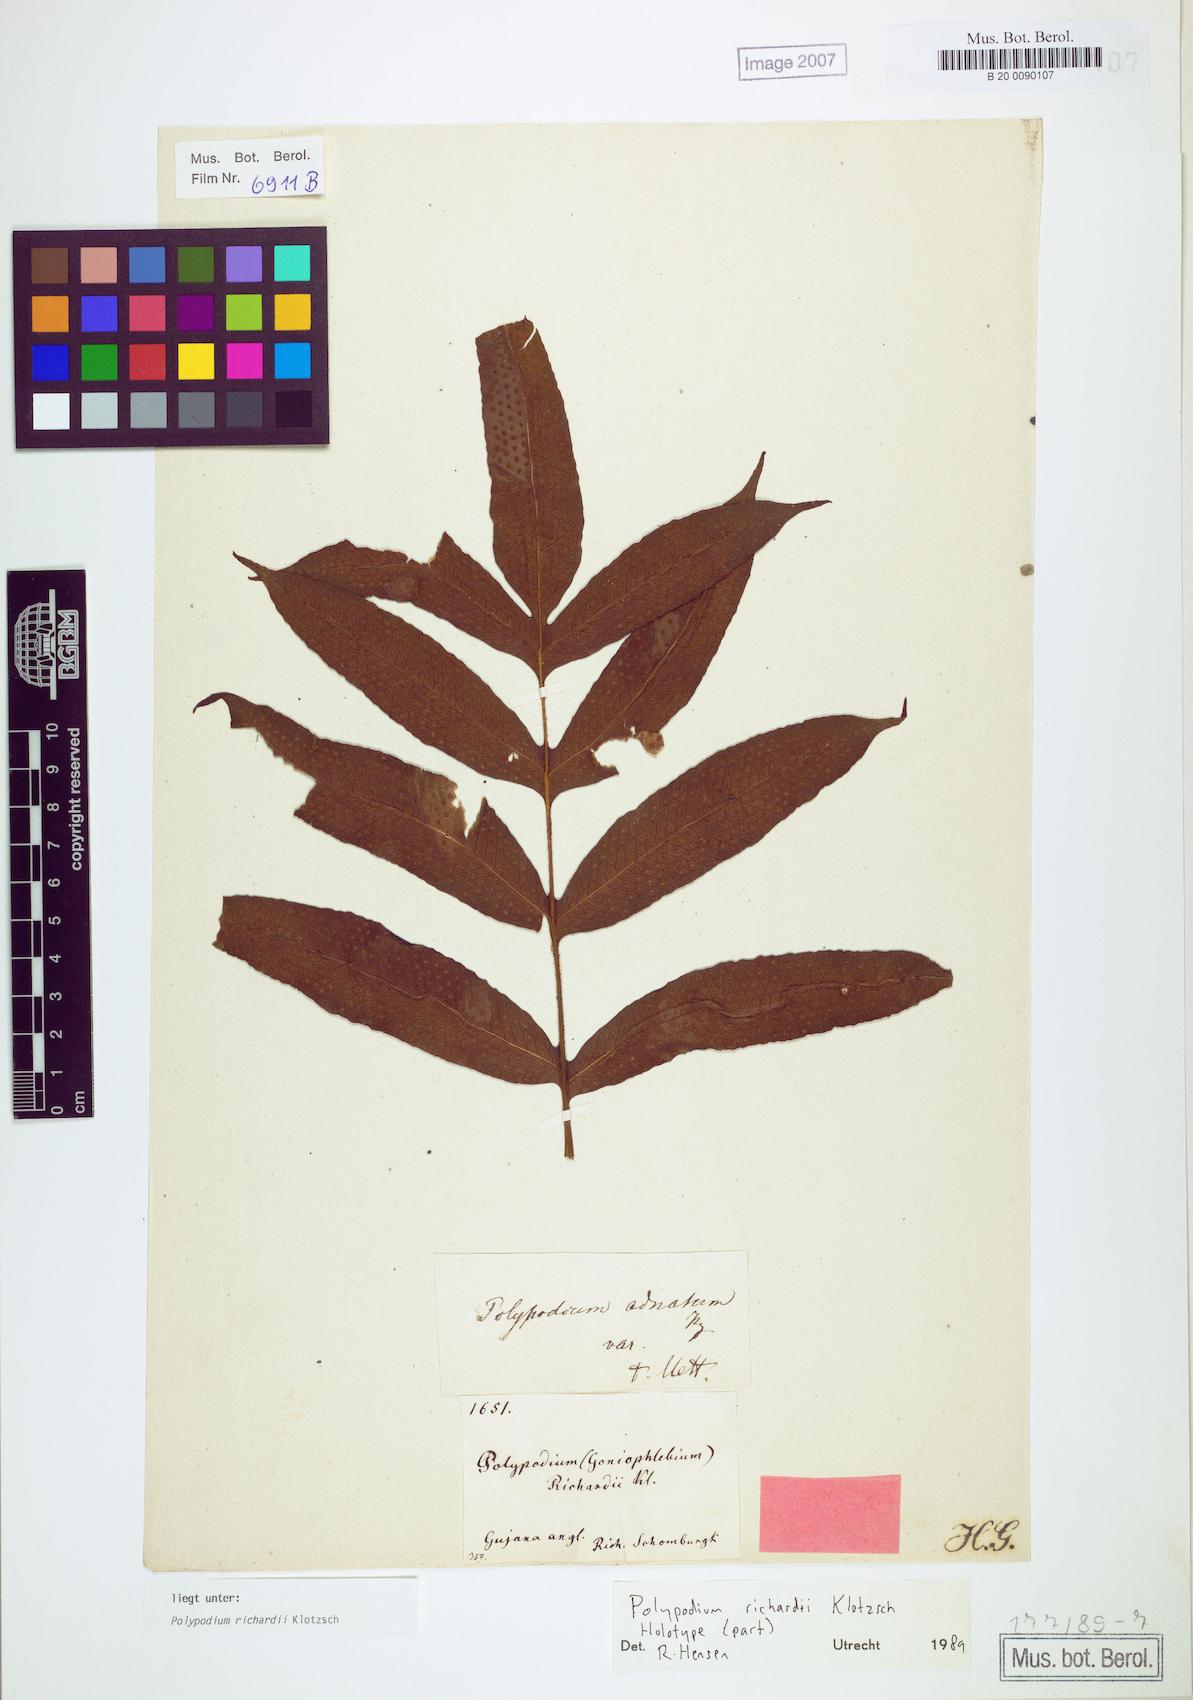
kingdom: Plantae
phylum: Tracheophyta
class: Polypodiopsida
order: Polypodiales
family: Polypodiaceae
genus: Serpocaulon
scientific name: Serpocaulon richardii
